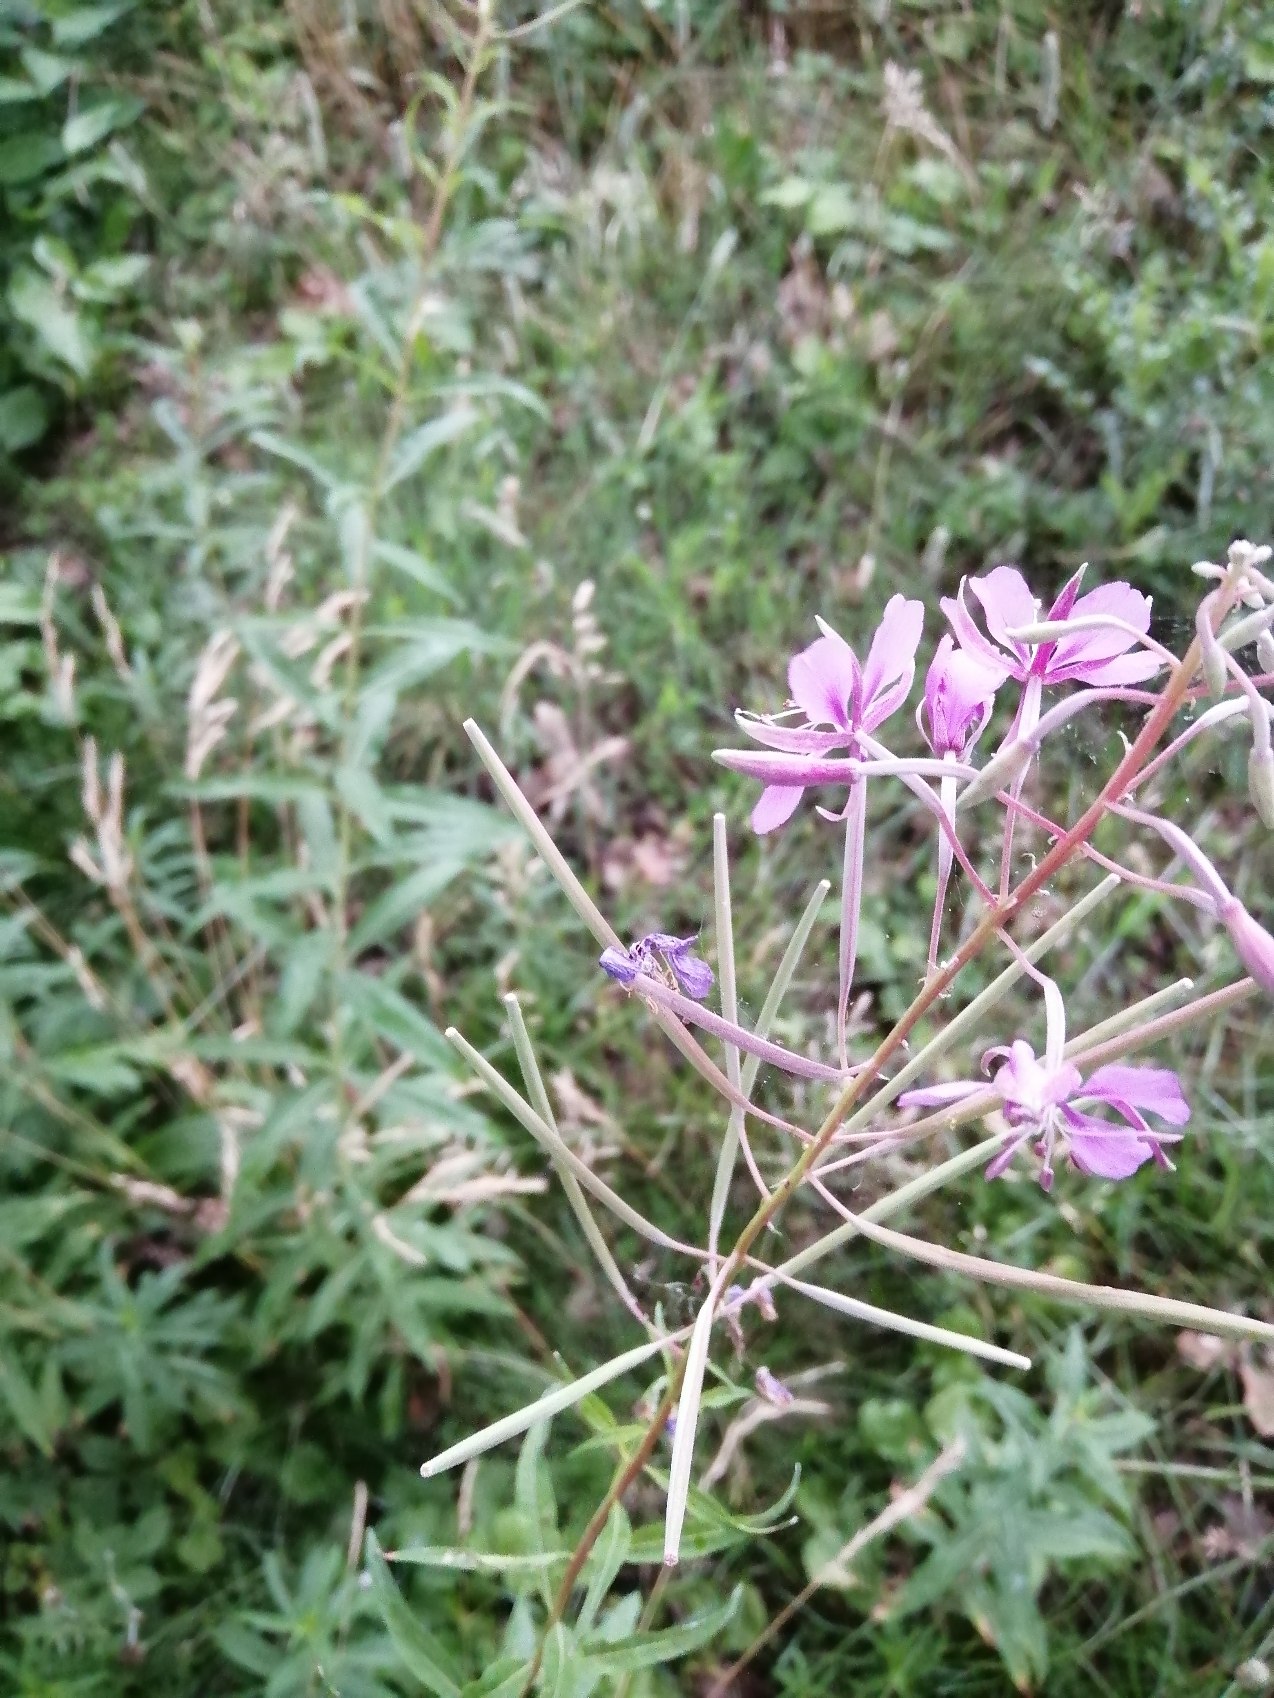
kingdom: Plantae
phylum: Tracheophyta
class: Magnoliopsida
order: Myrtales
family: Onagraceae
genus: Chamaenerion
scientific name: Chamaenerion angustifolium
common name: Gederams
